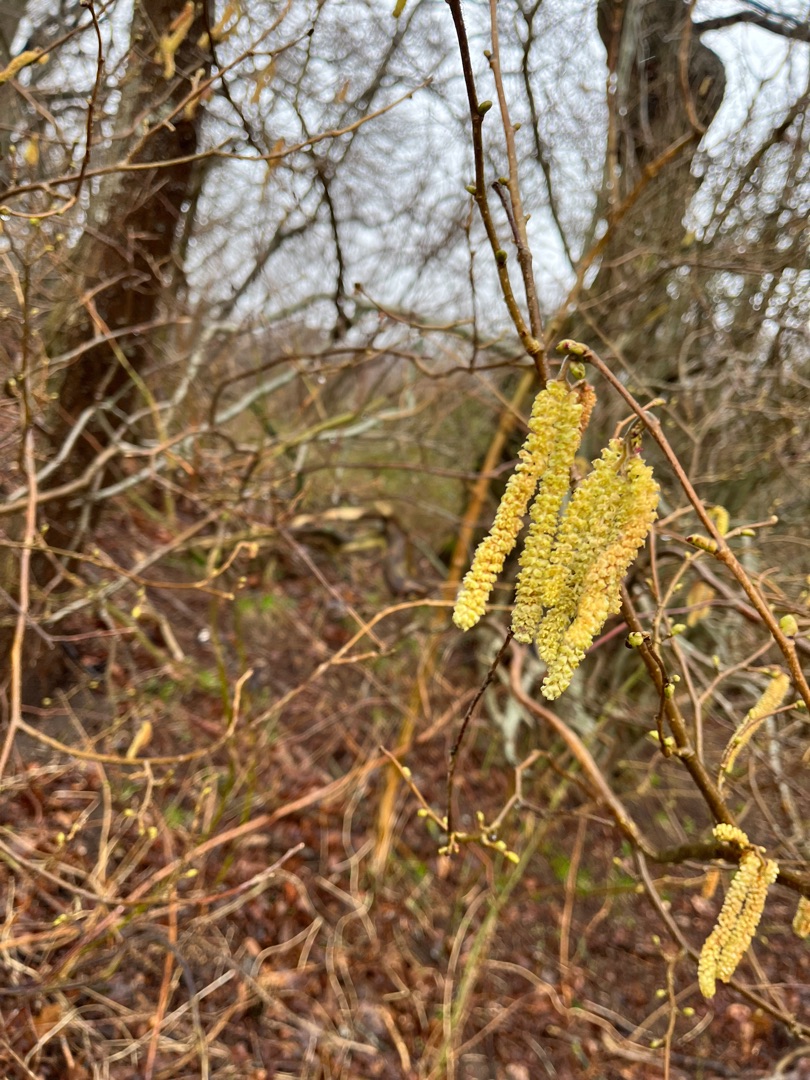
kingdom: Plantae
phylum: Tracheophyta
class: Magnoliopsida
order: Fagales
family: Betulaceae
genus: Corylus
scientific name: Corylus avellana
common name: Hassel
